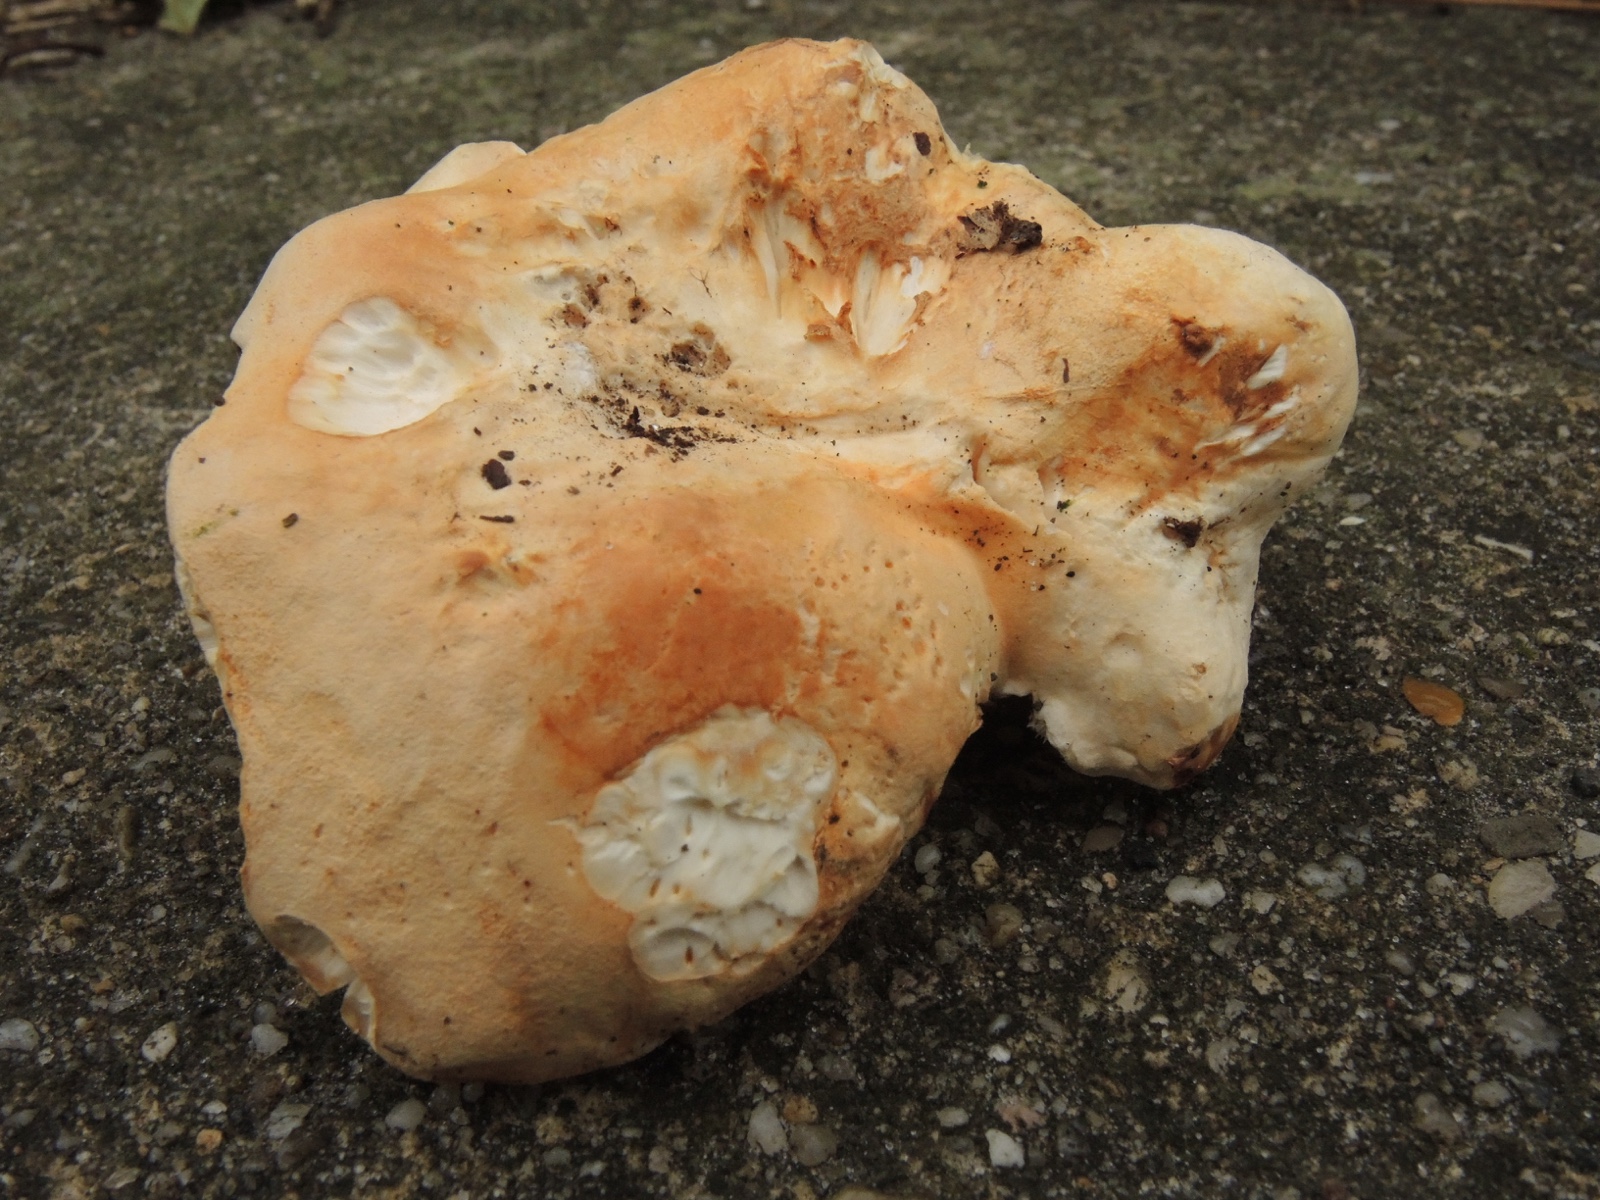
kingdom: Fungi
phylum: Basidiomycota
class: Agaricomycetes
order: Cantharellales
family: Hydnaceae
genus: Hydnum
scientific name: Hydnum slovenicum
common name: slovensk pigsvamp
